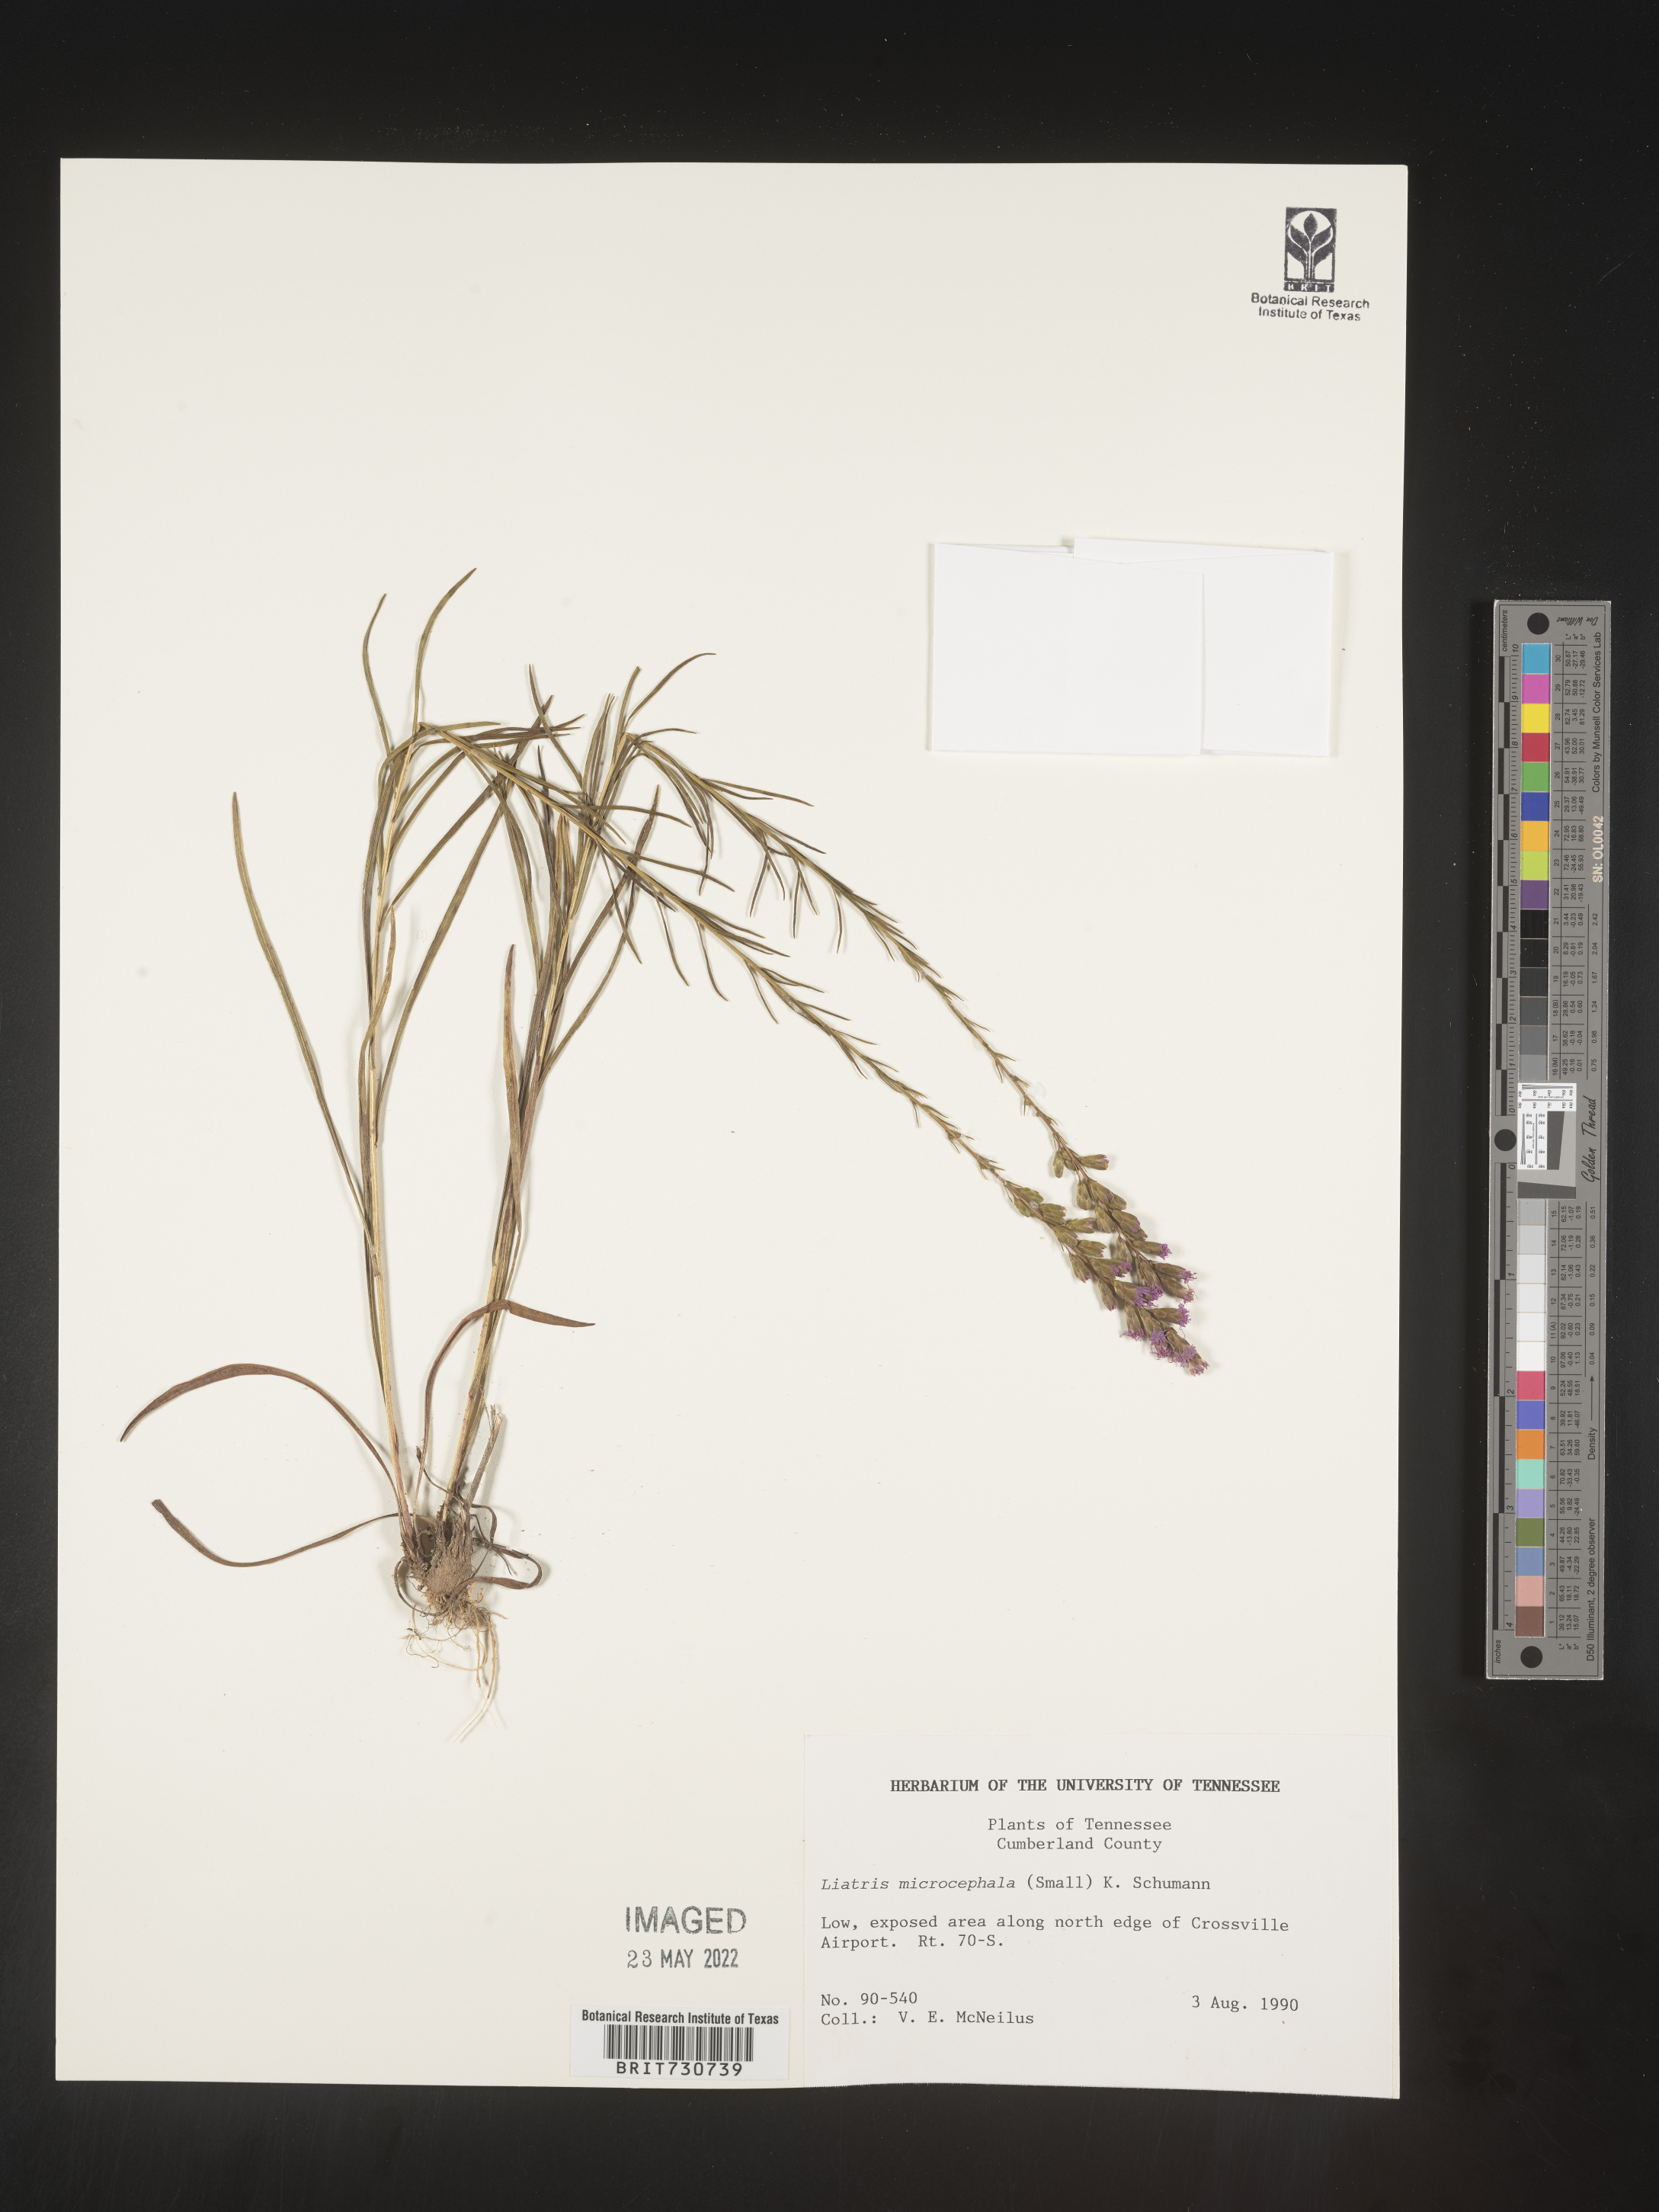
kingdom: Plantae
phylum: Tracheophyta
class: Magnoliopsida
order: Asterales
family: Asteraceae
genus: Liatris
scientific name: Liatris microcephala
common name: Small-head gayfeather
